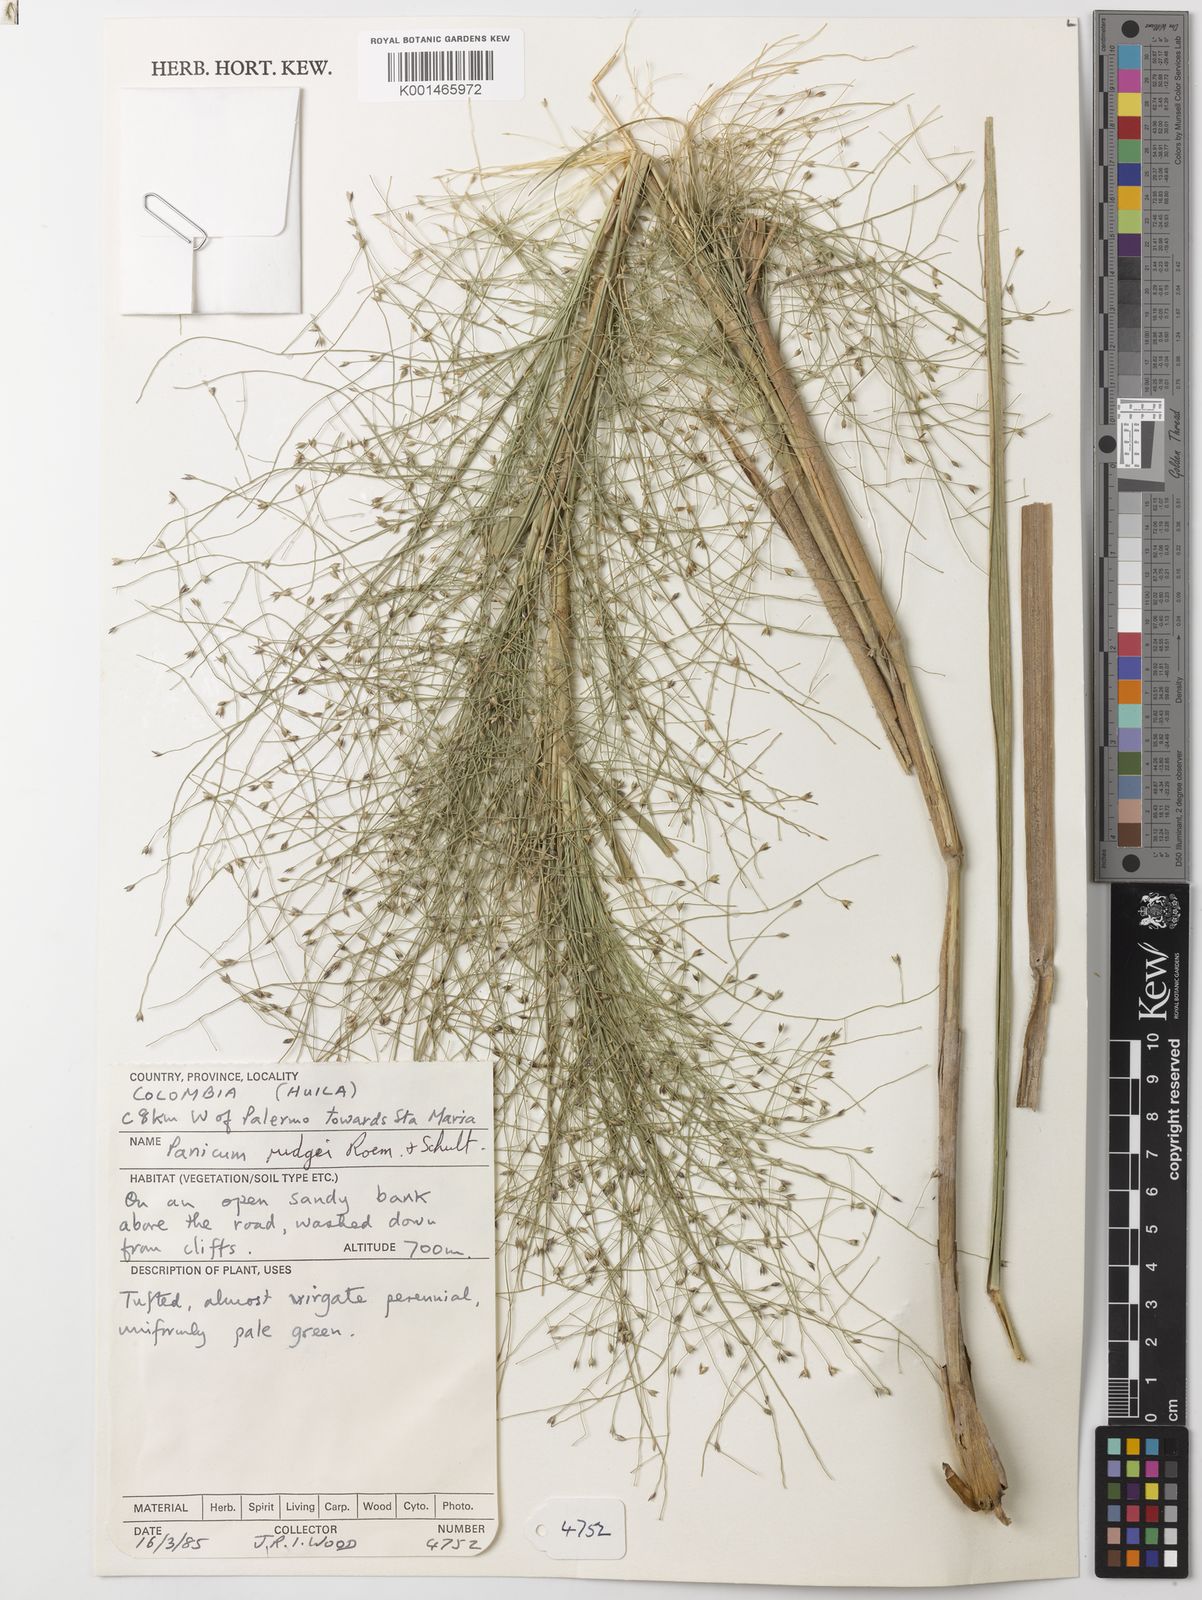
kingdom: Plantae
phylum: Tracheophyta
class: Liliopsida
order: Poales
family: Poaceae
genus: Panicum
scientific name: Panicum rudgei
